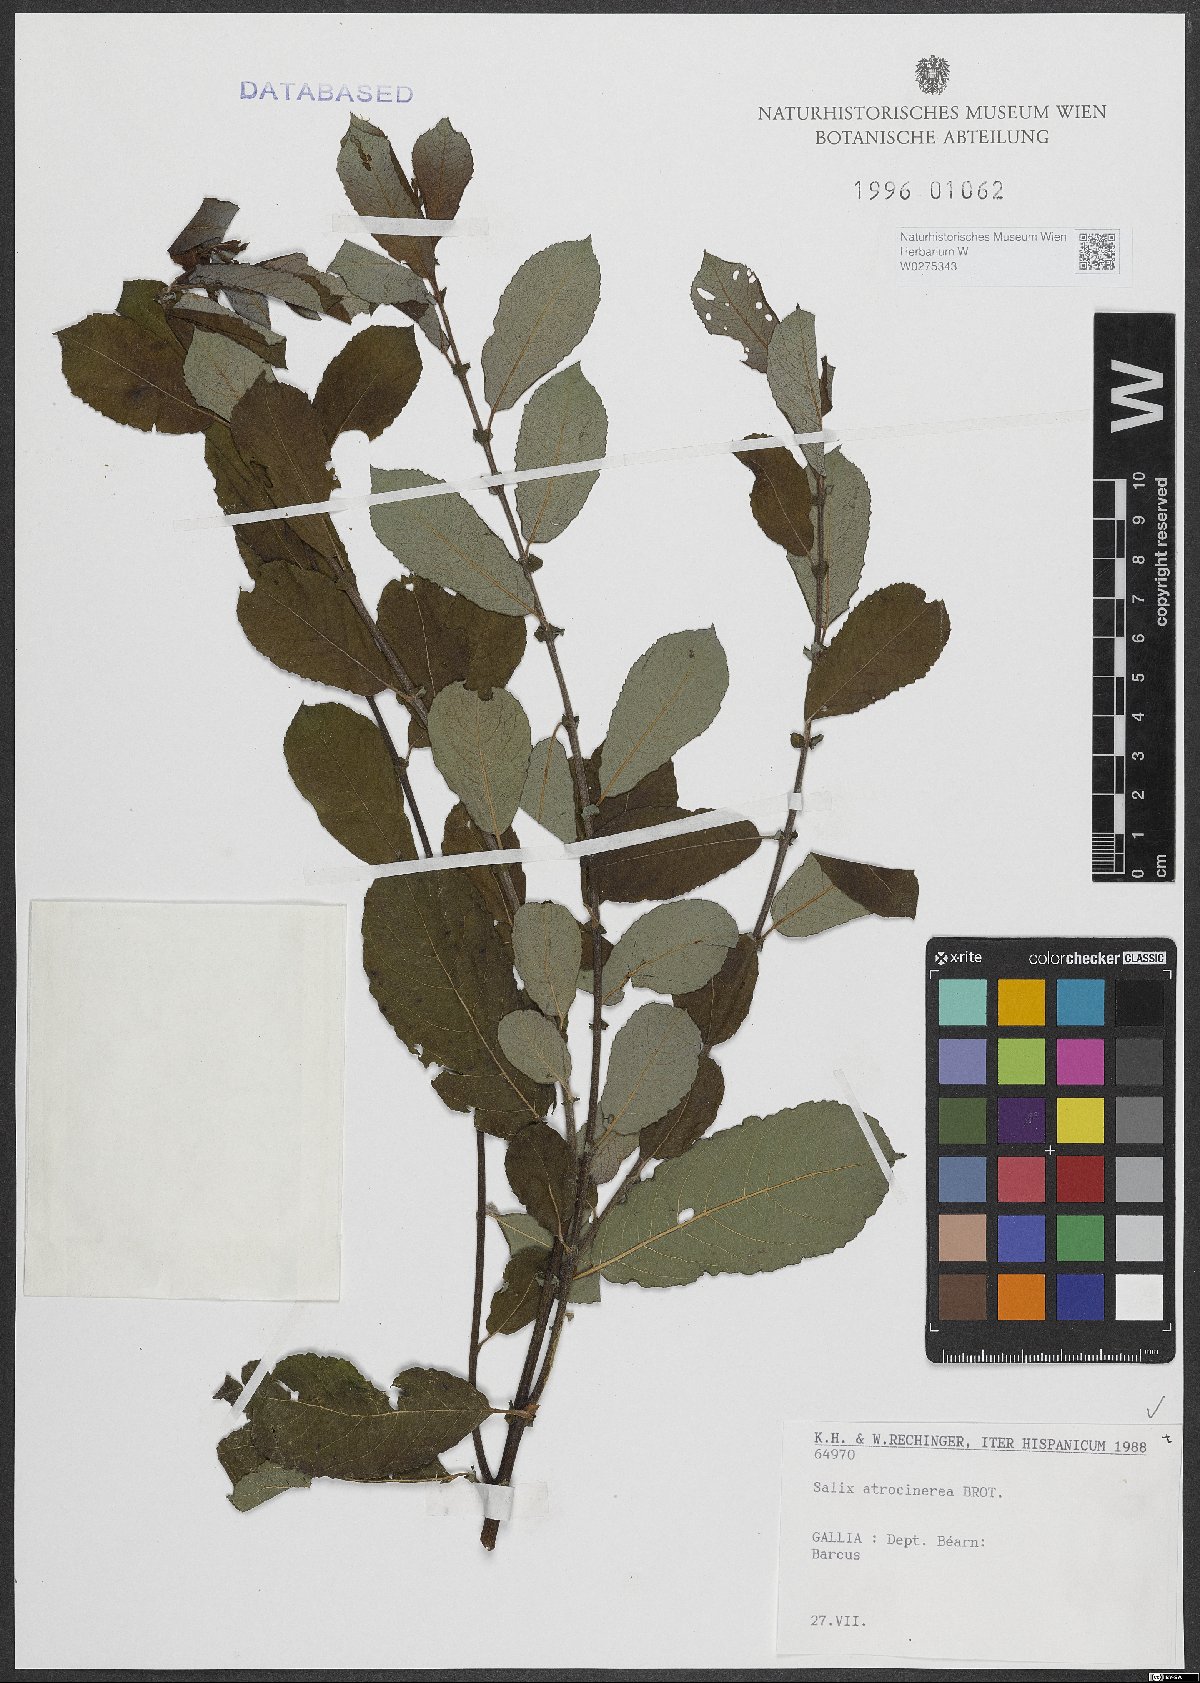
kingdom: Plantae
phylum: Tracheophyta
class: Magnoliopsida
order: Malpighiales
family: Salicaceae
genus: Salix
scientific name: Salix atrocinerea
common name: Rusty willow
